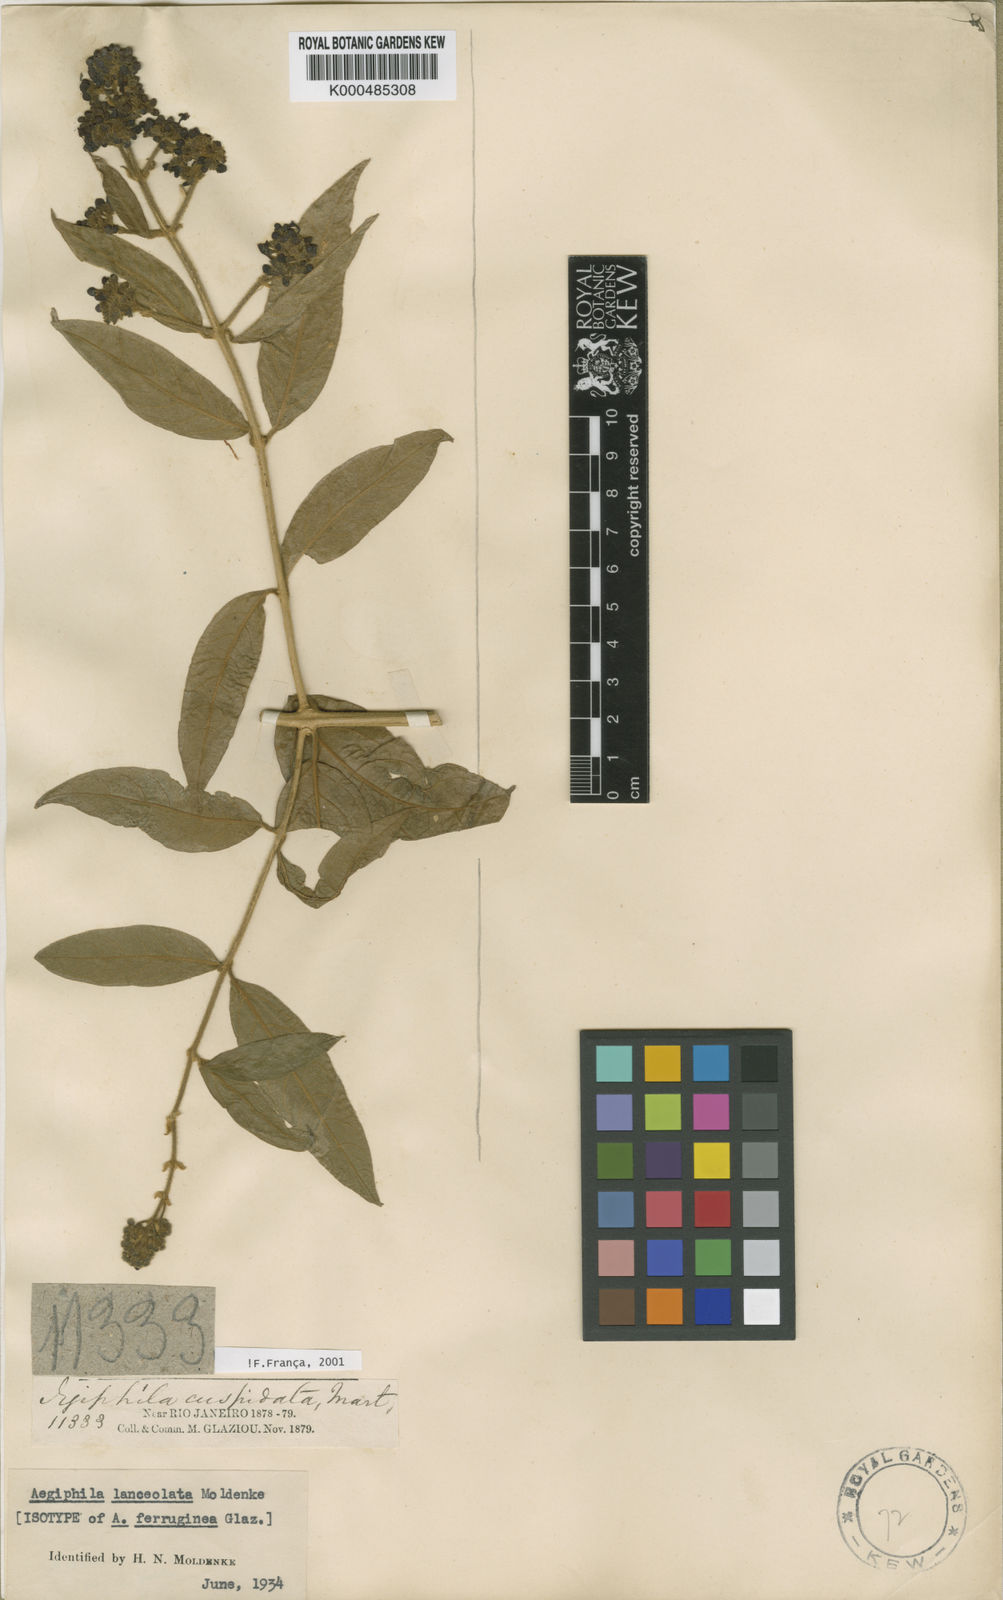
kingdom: Plantae
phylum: Tracheophyta
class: Magnoliopsida
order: Lamiales
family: Lamiaceae
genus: Aegiphila
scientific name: Aegiphila vitelliniflora
